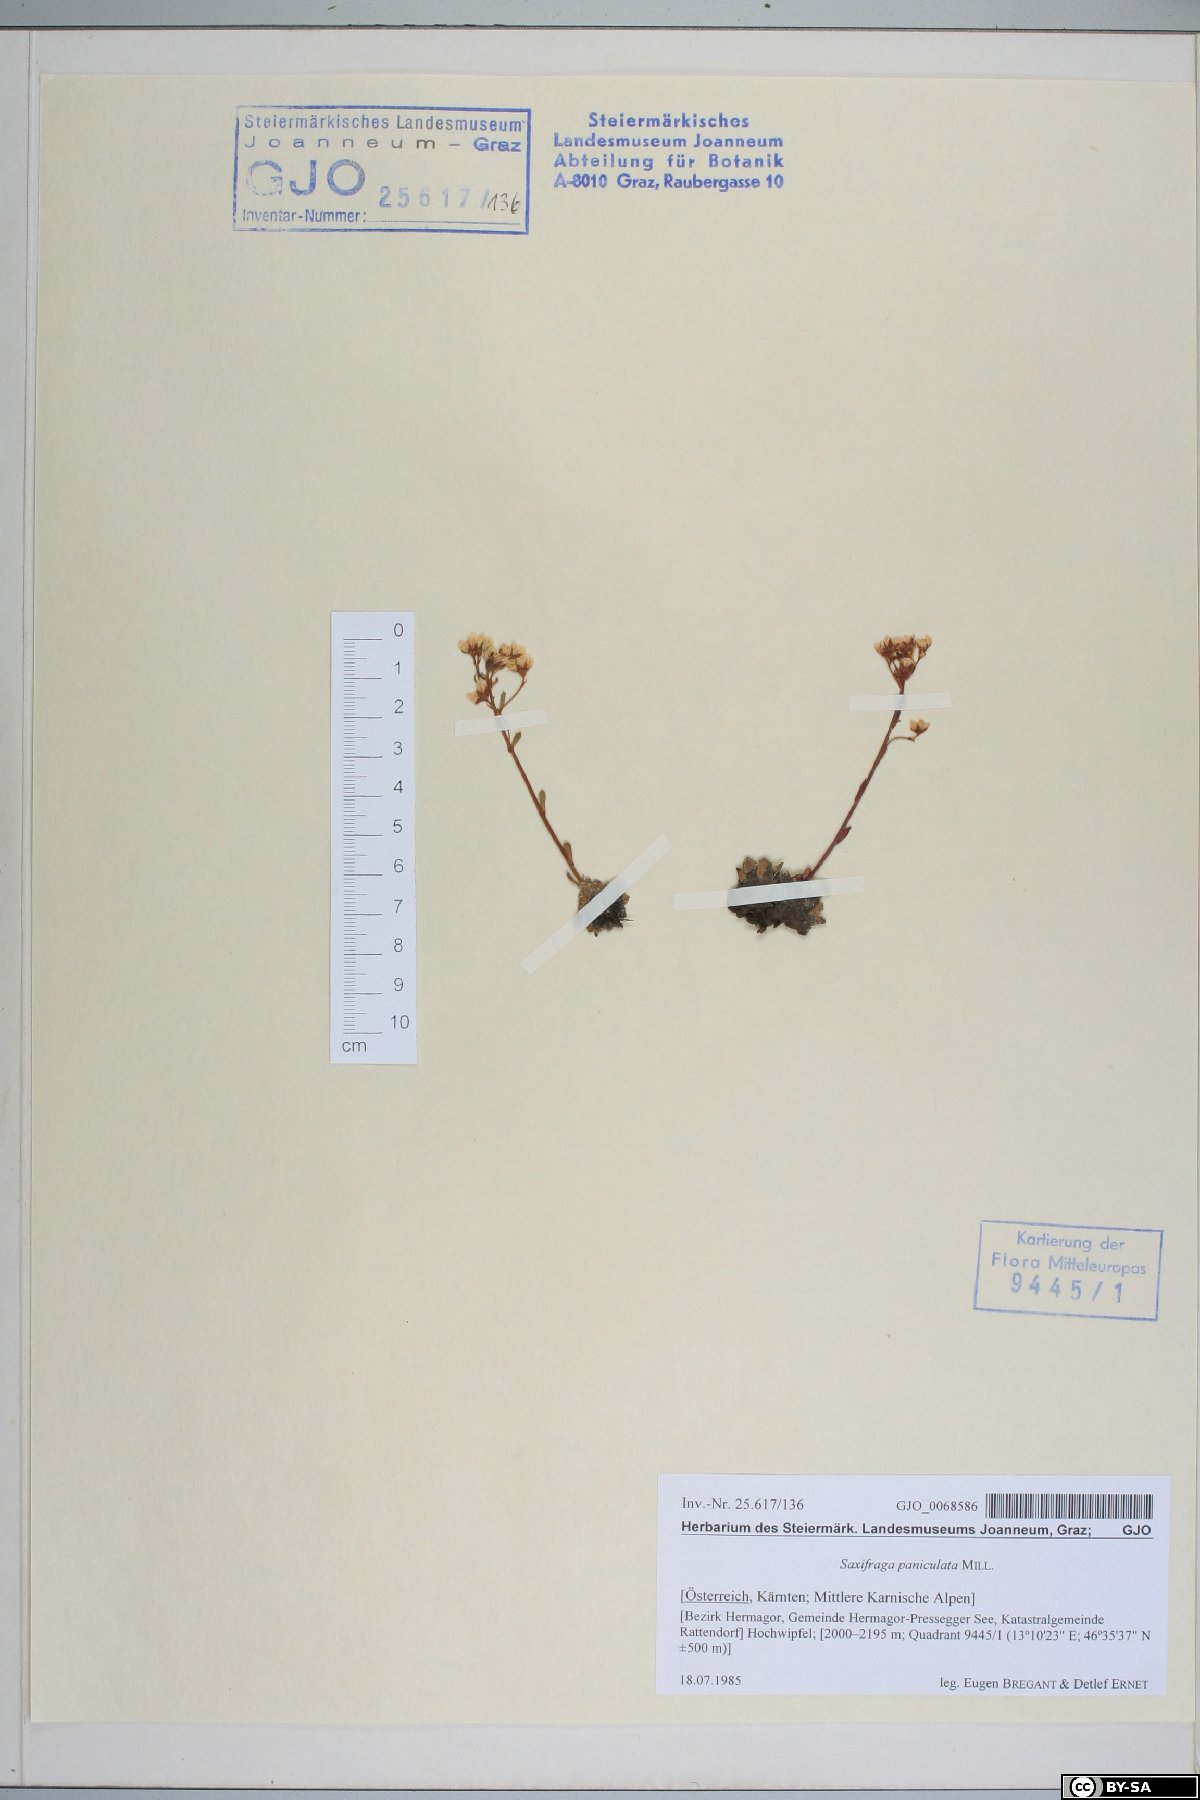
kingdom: Plantae
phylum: Tracheophyta
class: Magnoliopsida
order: Saxifragales
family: Saxifragaceae
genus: Saxifraga
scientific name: Saxifraga paniculata
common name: Livelong saxifrage
